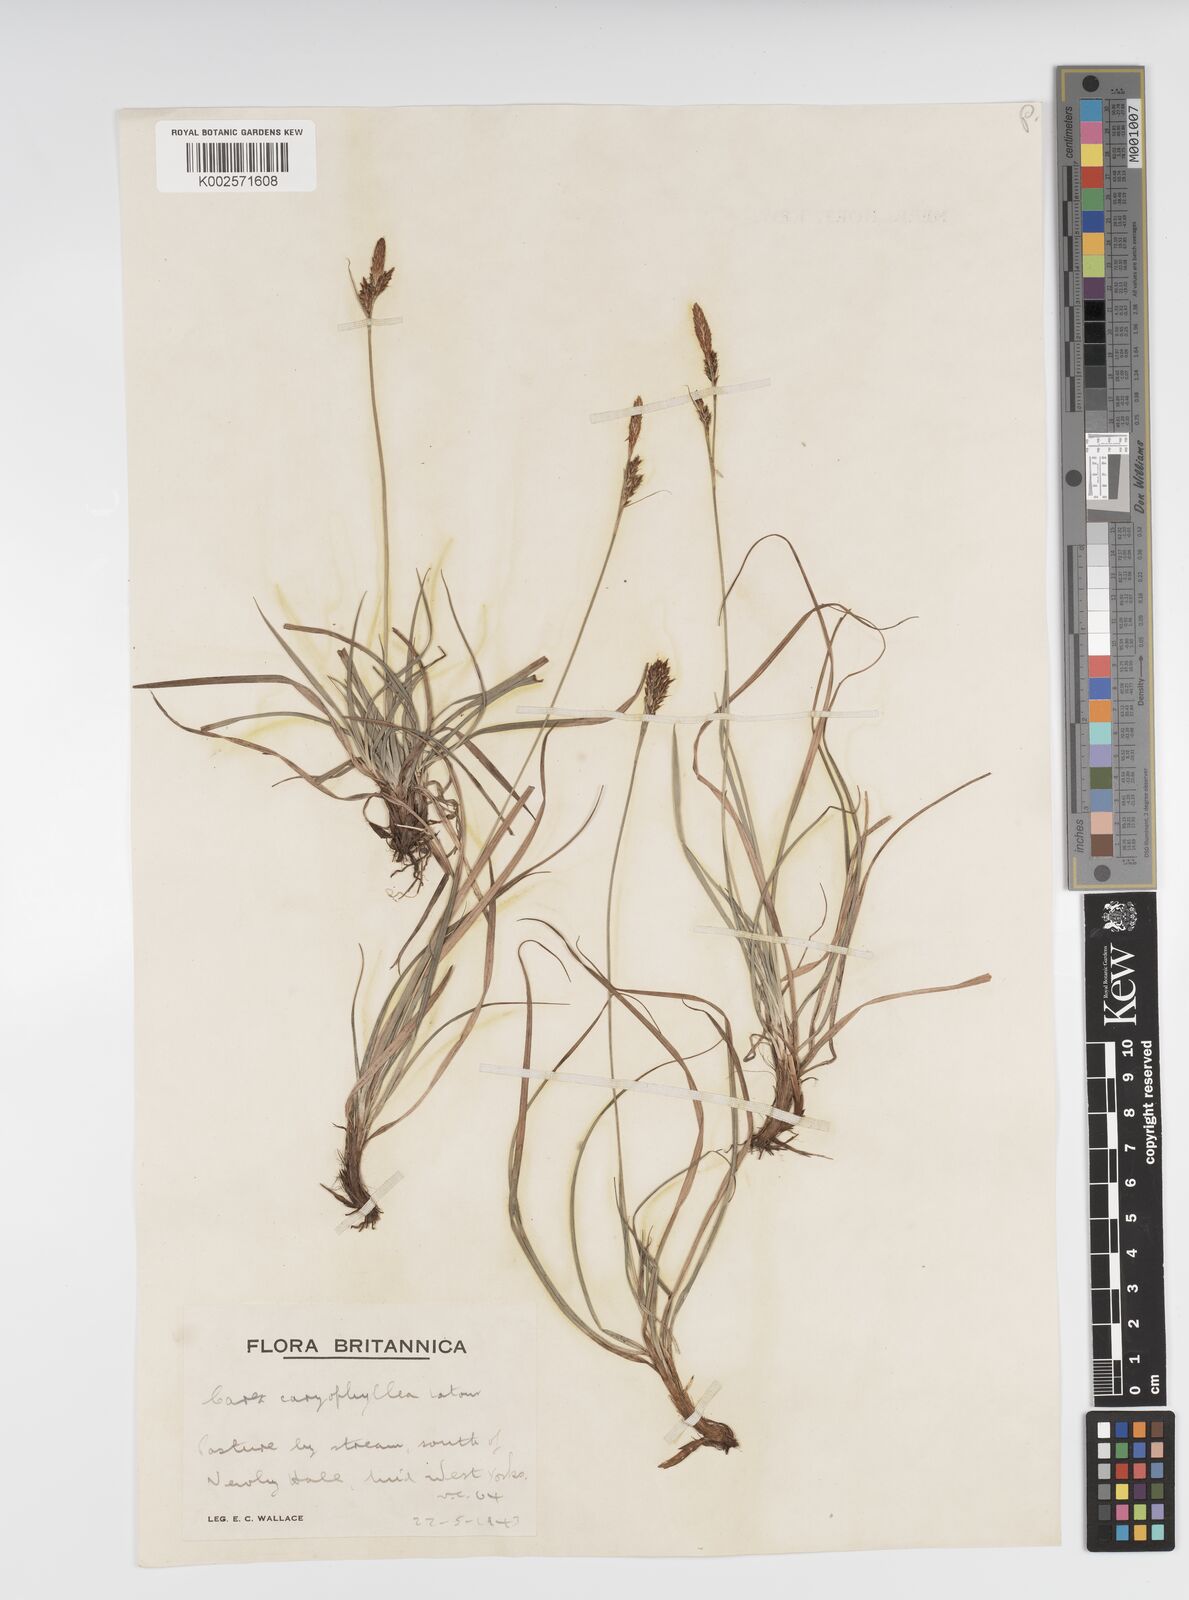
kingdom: Plantae
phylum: Tracheophyta
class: Liliopsida
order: Poales
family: Cyperaceae
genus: Carex
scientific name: Carex caryophyllea
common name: Spring sedge
